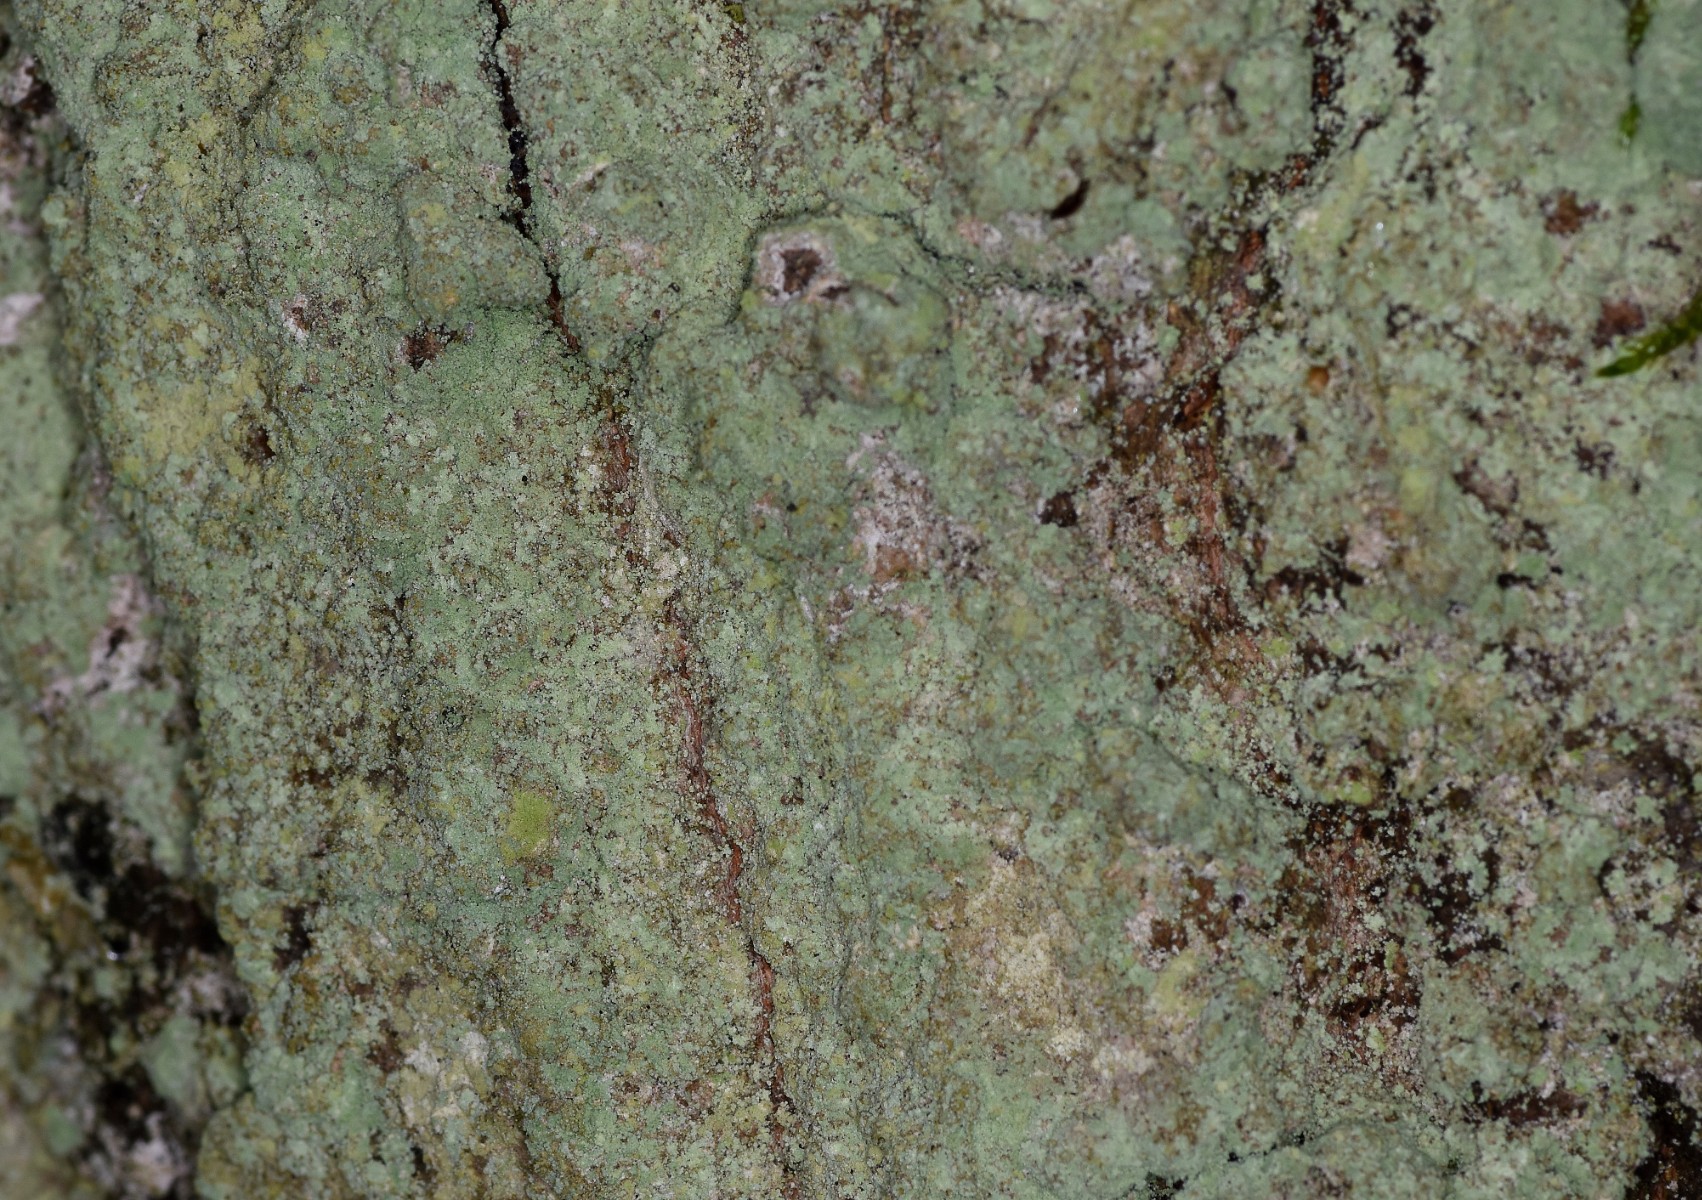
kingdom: Fungi
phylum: Ascomycota
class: Lecanoromycetes
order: Lecanorales
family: Stereocaulaceae
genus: Lepraria
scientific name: Lepraria incana
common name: almindelig støvlav
